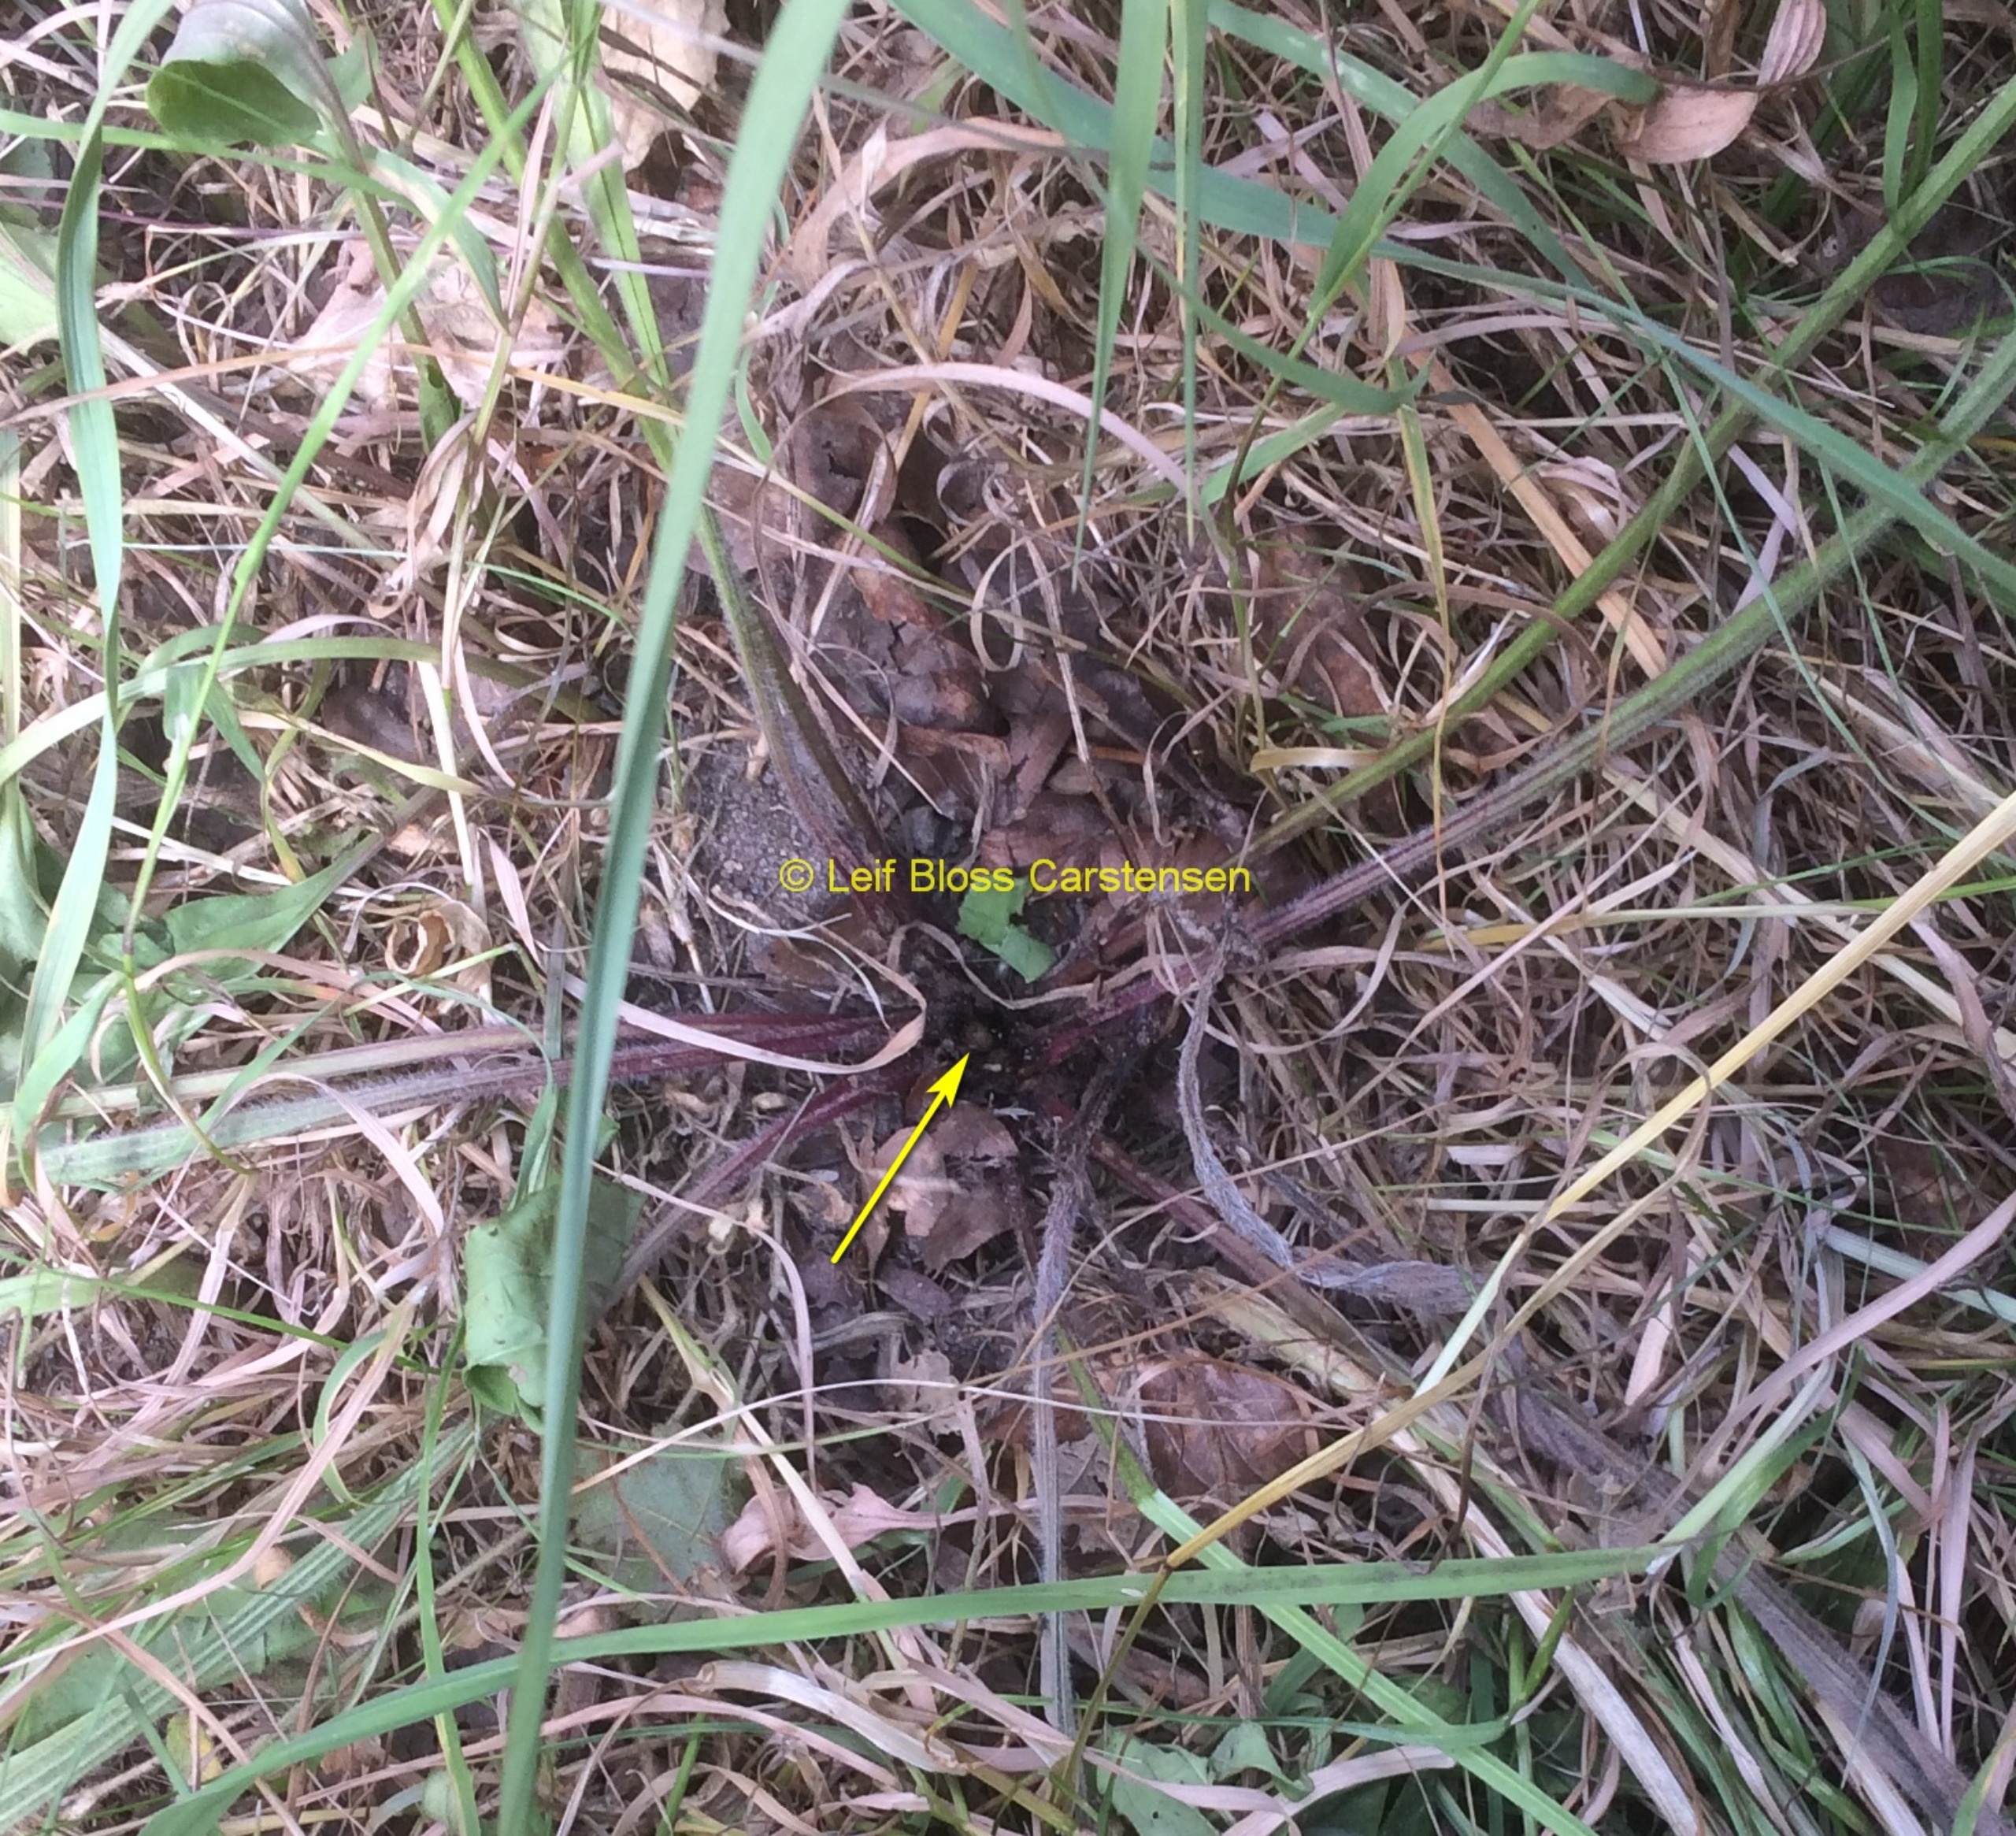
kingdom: Animalia
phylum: Arthropoda
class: Insecta
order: Diptera
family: Syrphidae
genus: Cheilosia
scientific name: Cheilosia lasiopa
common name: Vejbred-urtesvirreflue
